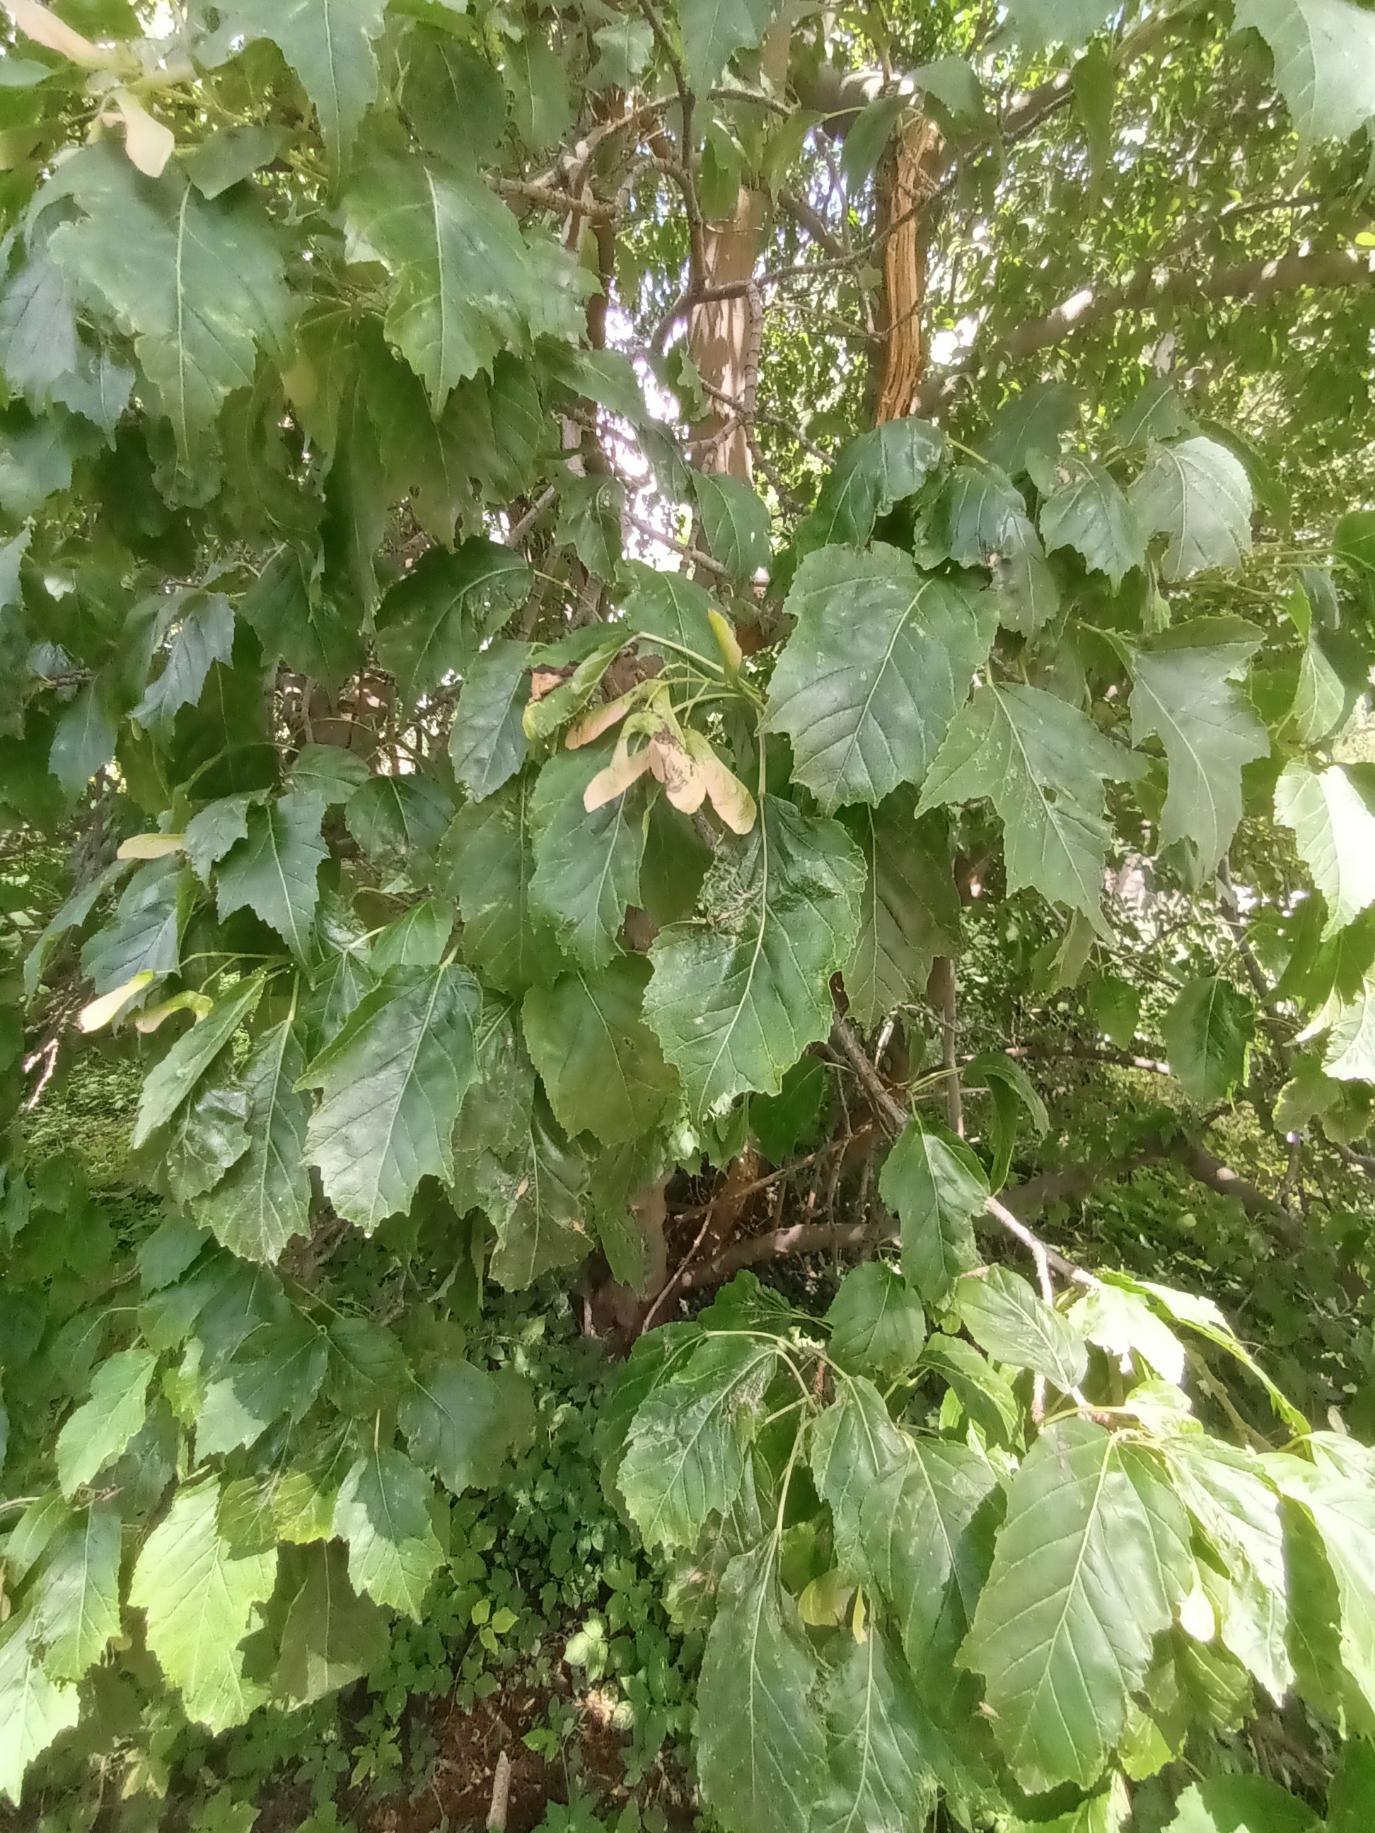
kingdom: Plantae
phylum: Tracheophyta
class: Magnoliopsida
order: Sapindales
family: Sapindaceae
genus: Acer
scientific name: Acer tataricum
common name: Ild-løn
